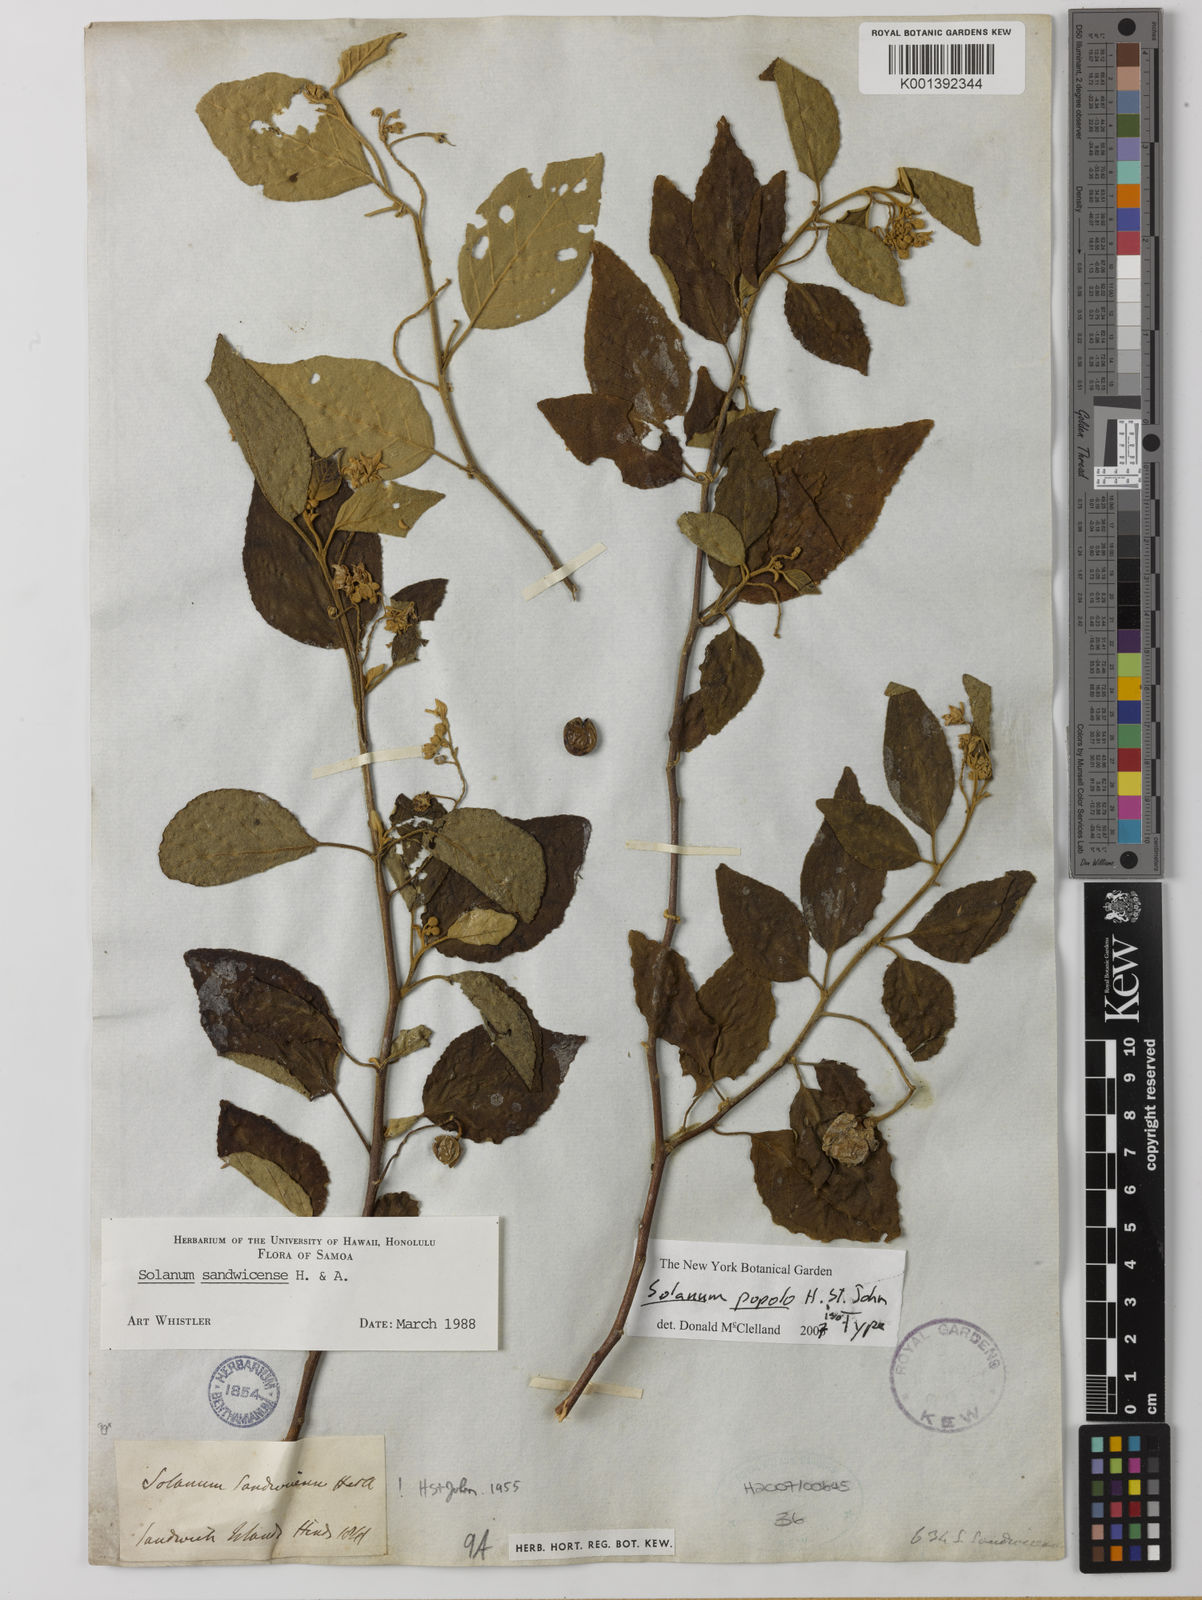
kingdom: Plantae
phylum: Tracheophyta
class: Magnoliopsida
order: Solanales
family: Solanaceae
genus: Solanum
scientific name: Solanum
